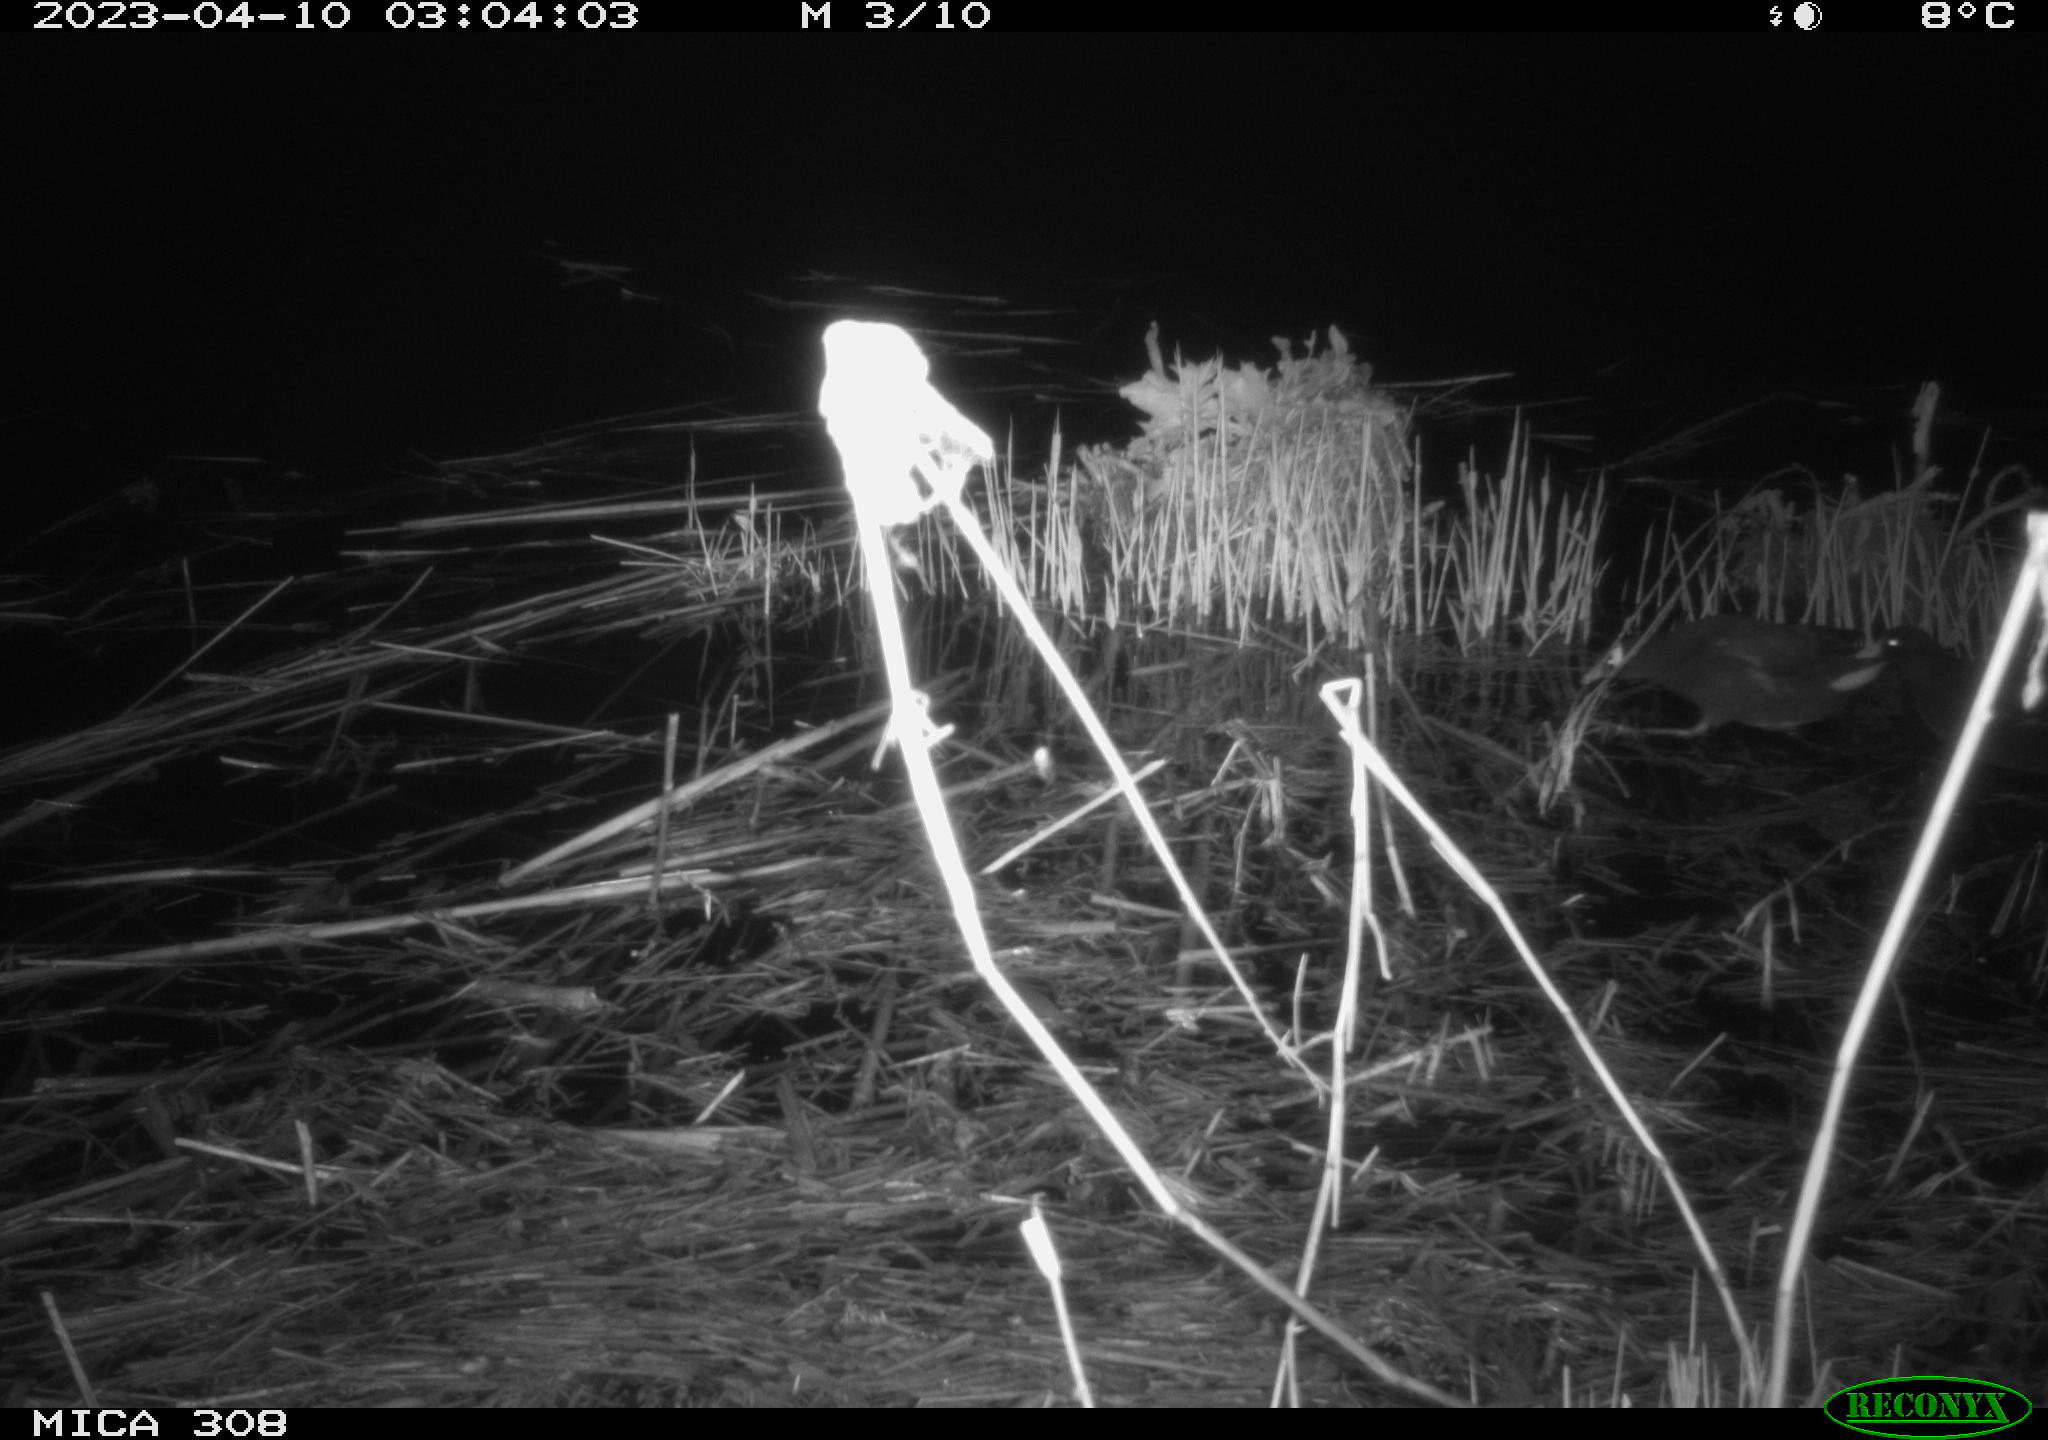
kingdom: Animalia
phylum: Chordata
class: Aves
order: Gruiformes
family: Rallidae
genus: Gallinula
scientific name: Gallinula chloropus
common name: Common moorhen
